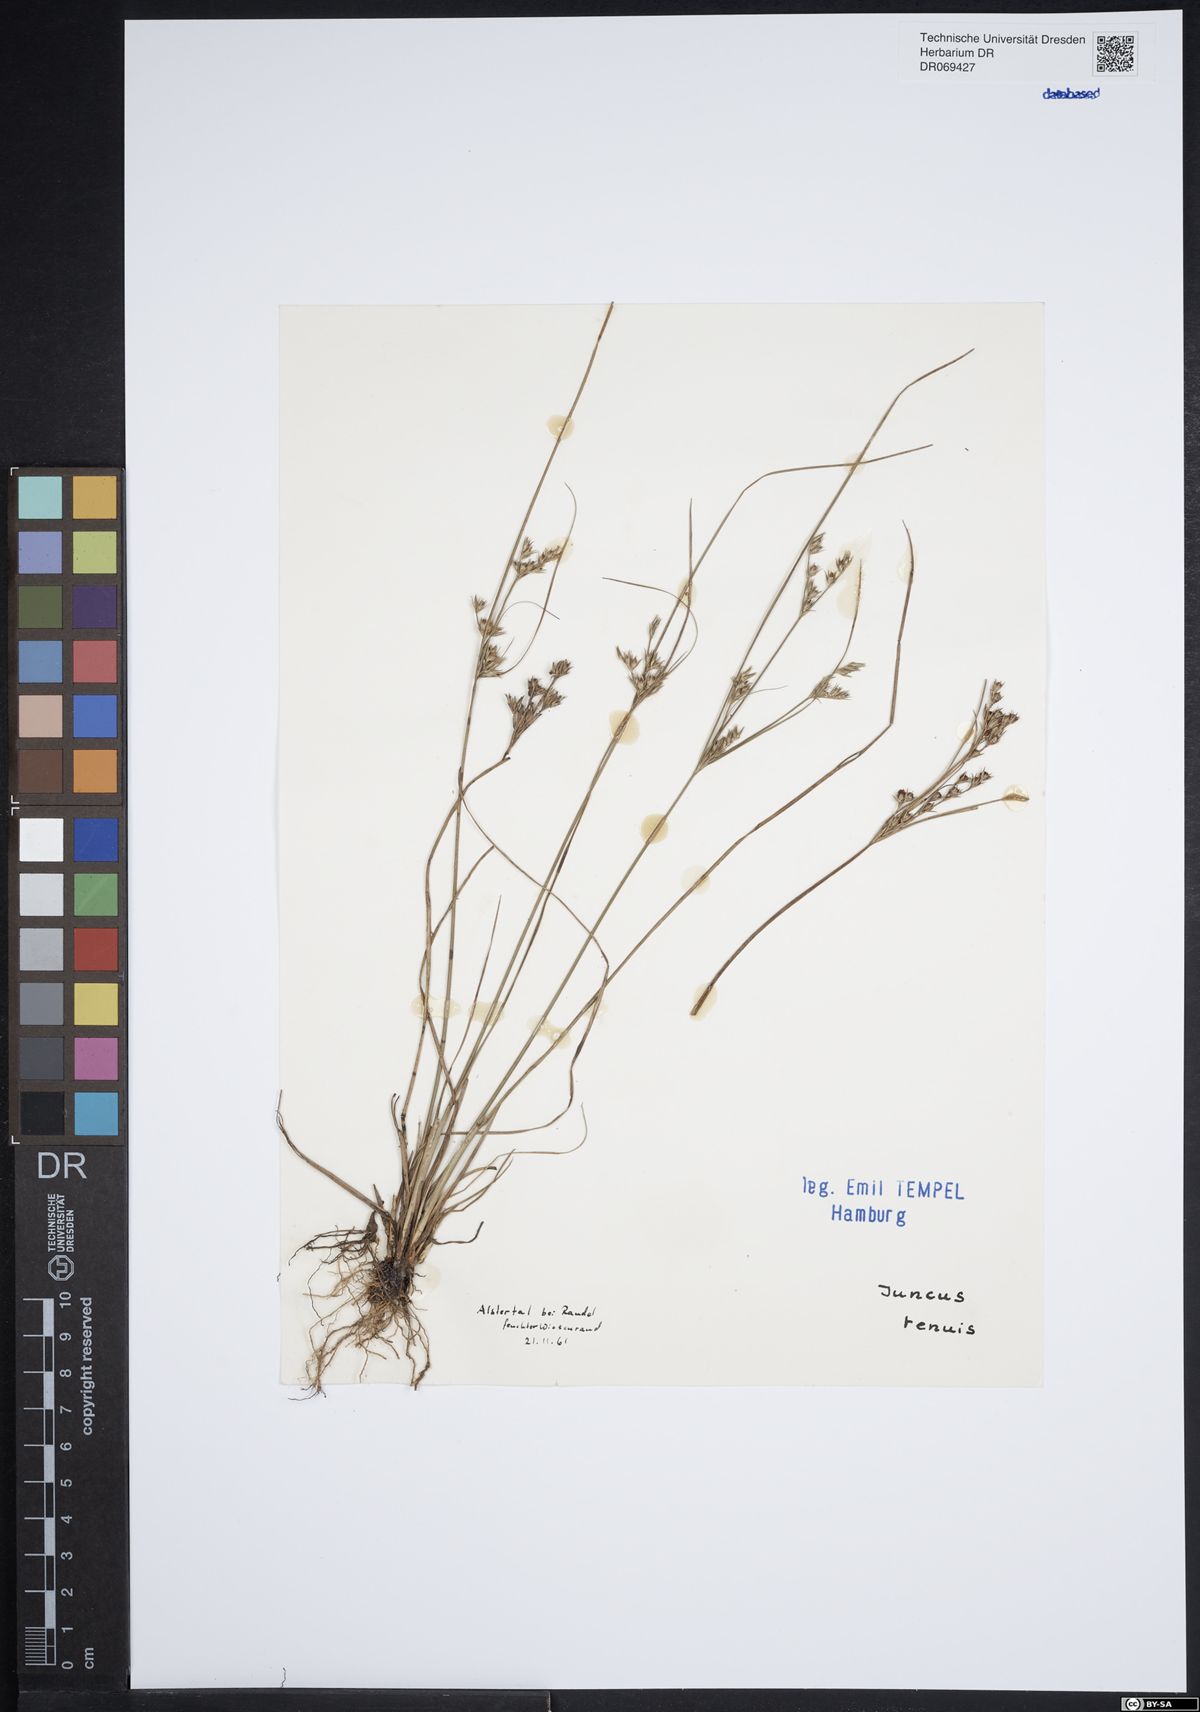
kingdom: Plantae
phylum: Tracheophyta
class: Liliopsida
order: Poales
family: Juncaceae
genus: Juncus
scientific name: Juncus tenuis
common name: Slender rush
